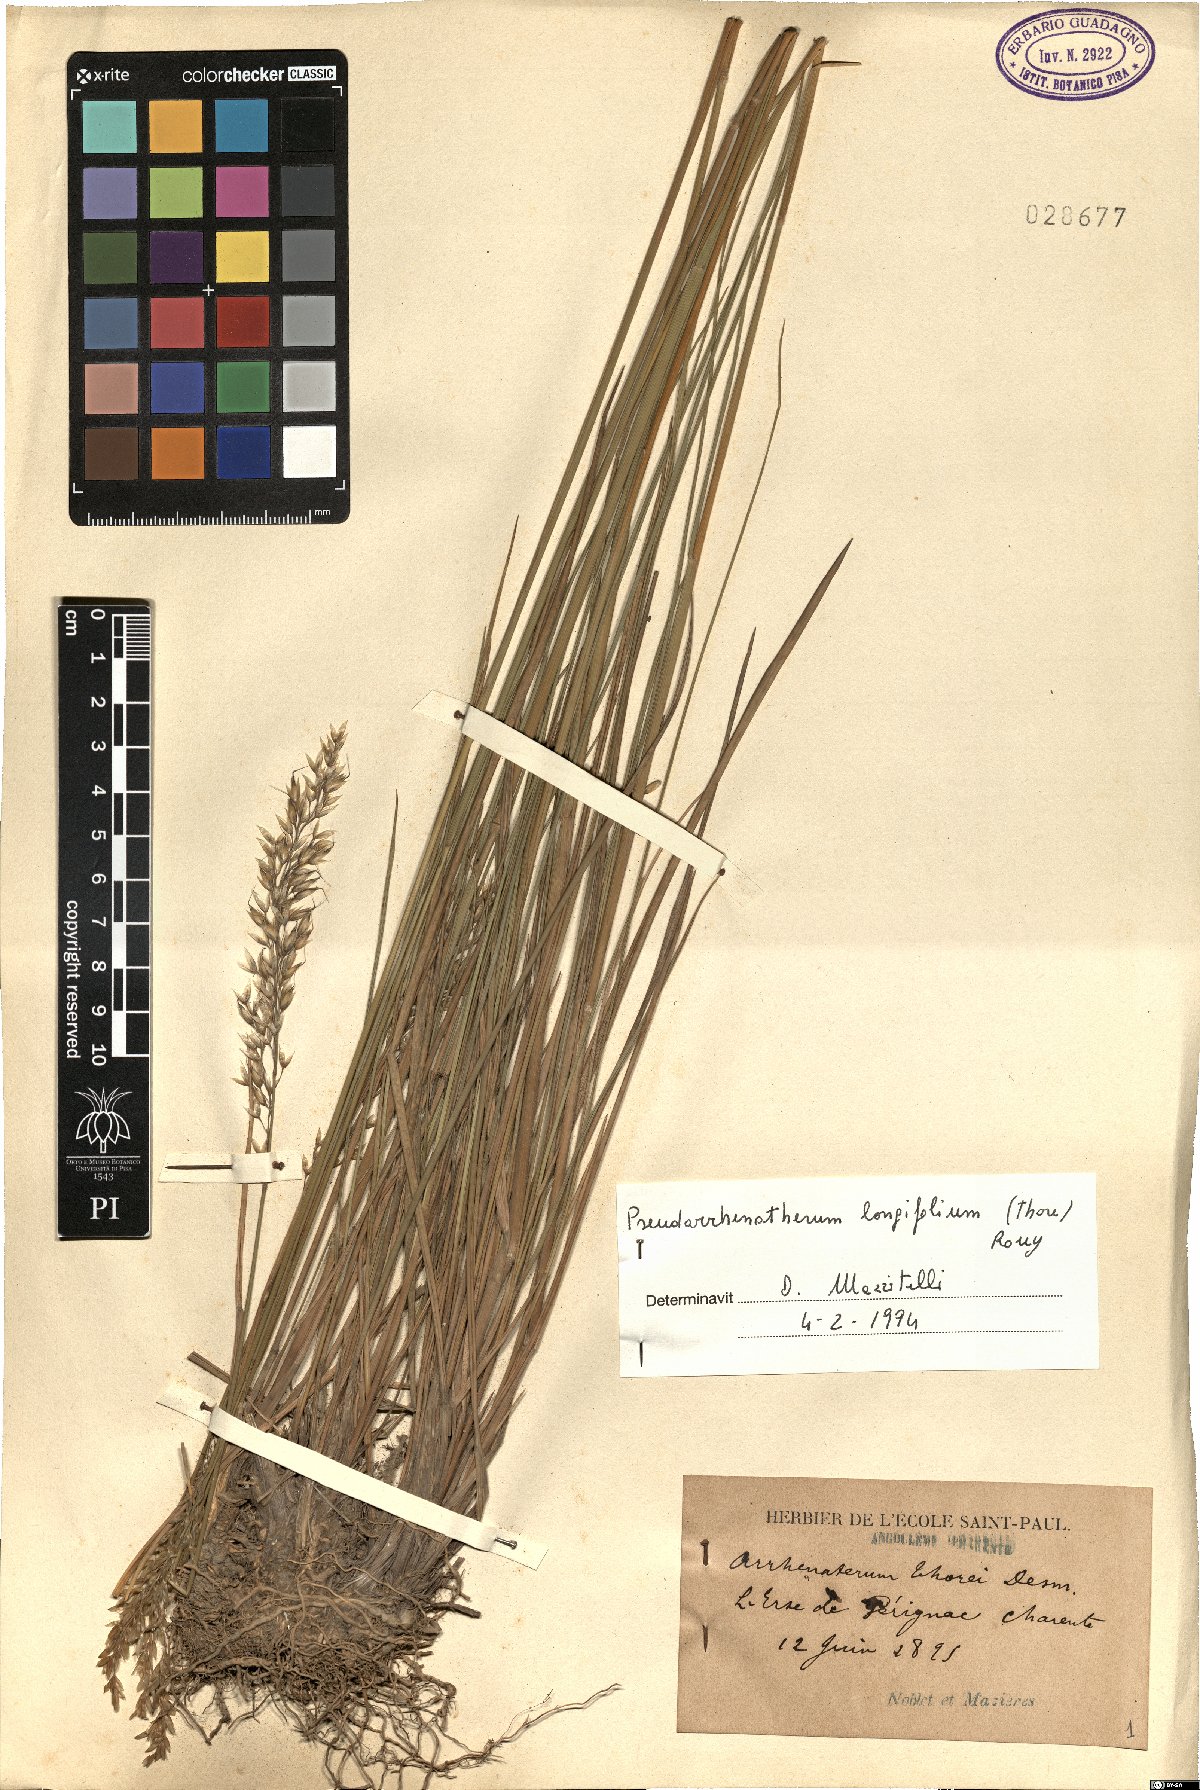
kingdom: Plantae
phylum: Tracheophyta
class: Liliopsida
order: Poales
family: Poaceae
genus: Arrhenatherum
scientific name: Arrhenatherum longifolium
